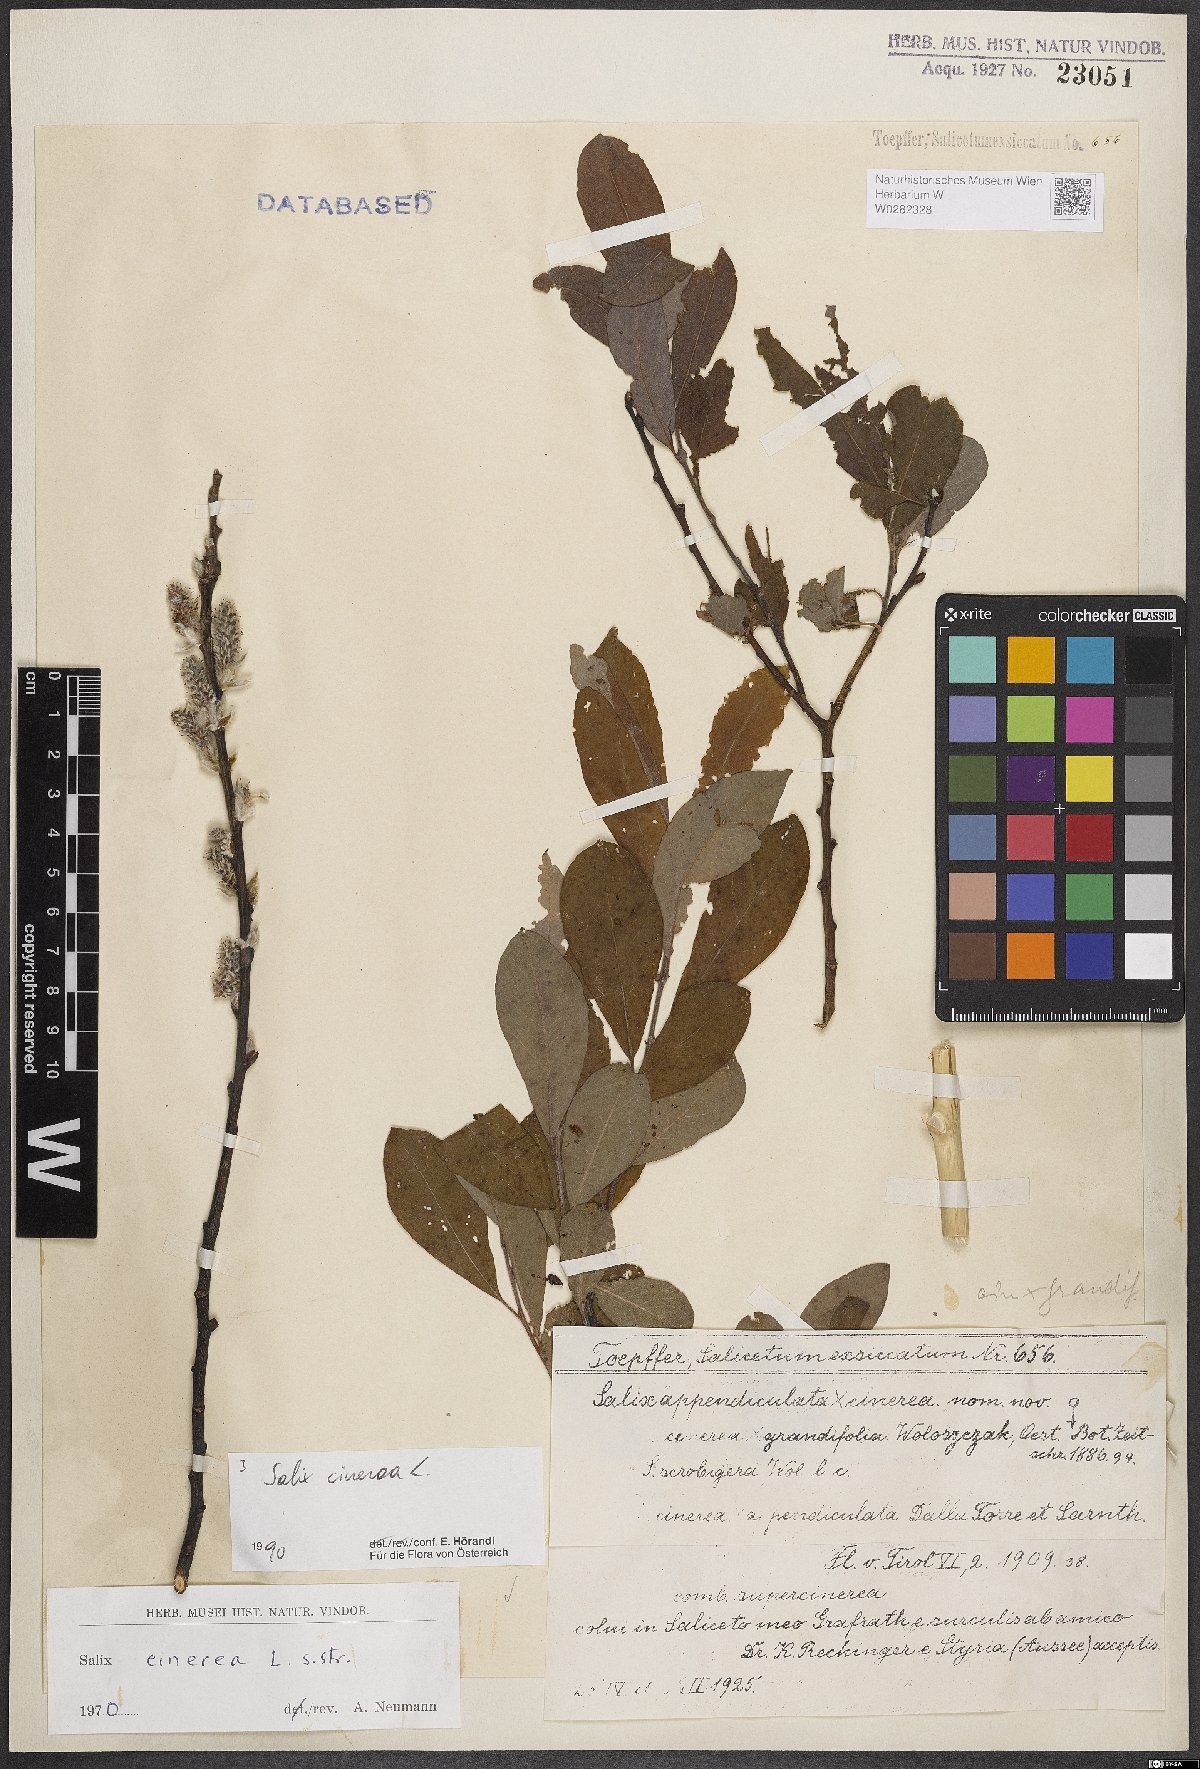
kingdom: Plantae
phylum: Tracheophyta
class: Magnoliopsida
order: Malpighiales
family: Salicaceae
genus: Salix
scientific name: Salix cinerea
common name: Common sallow
